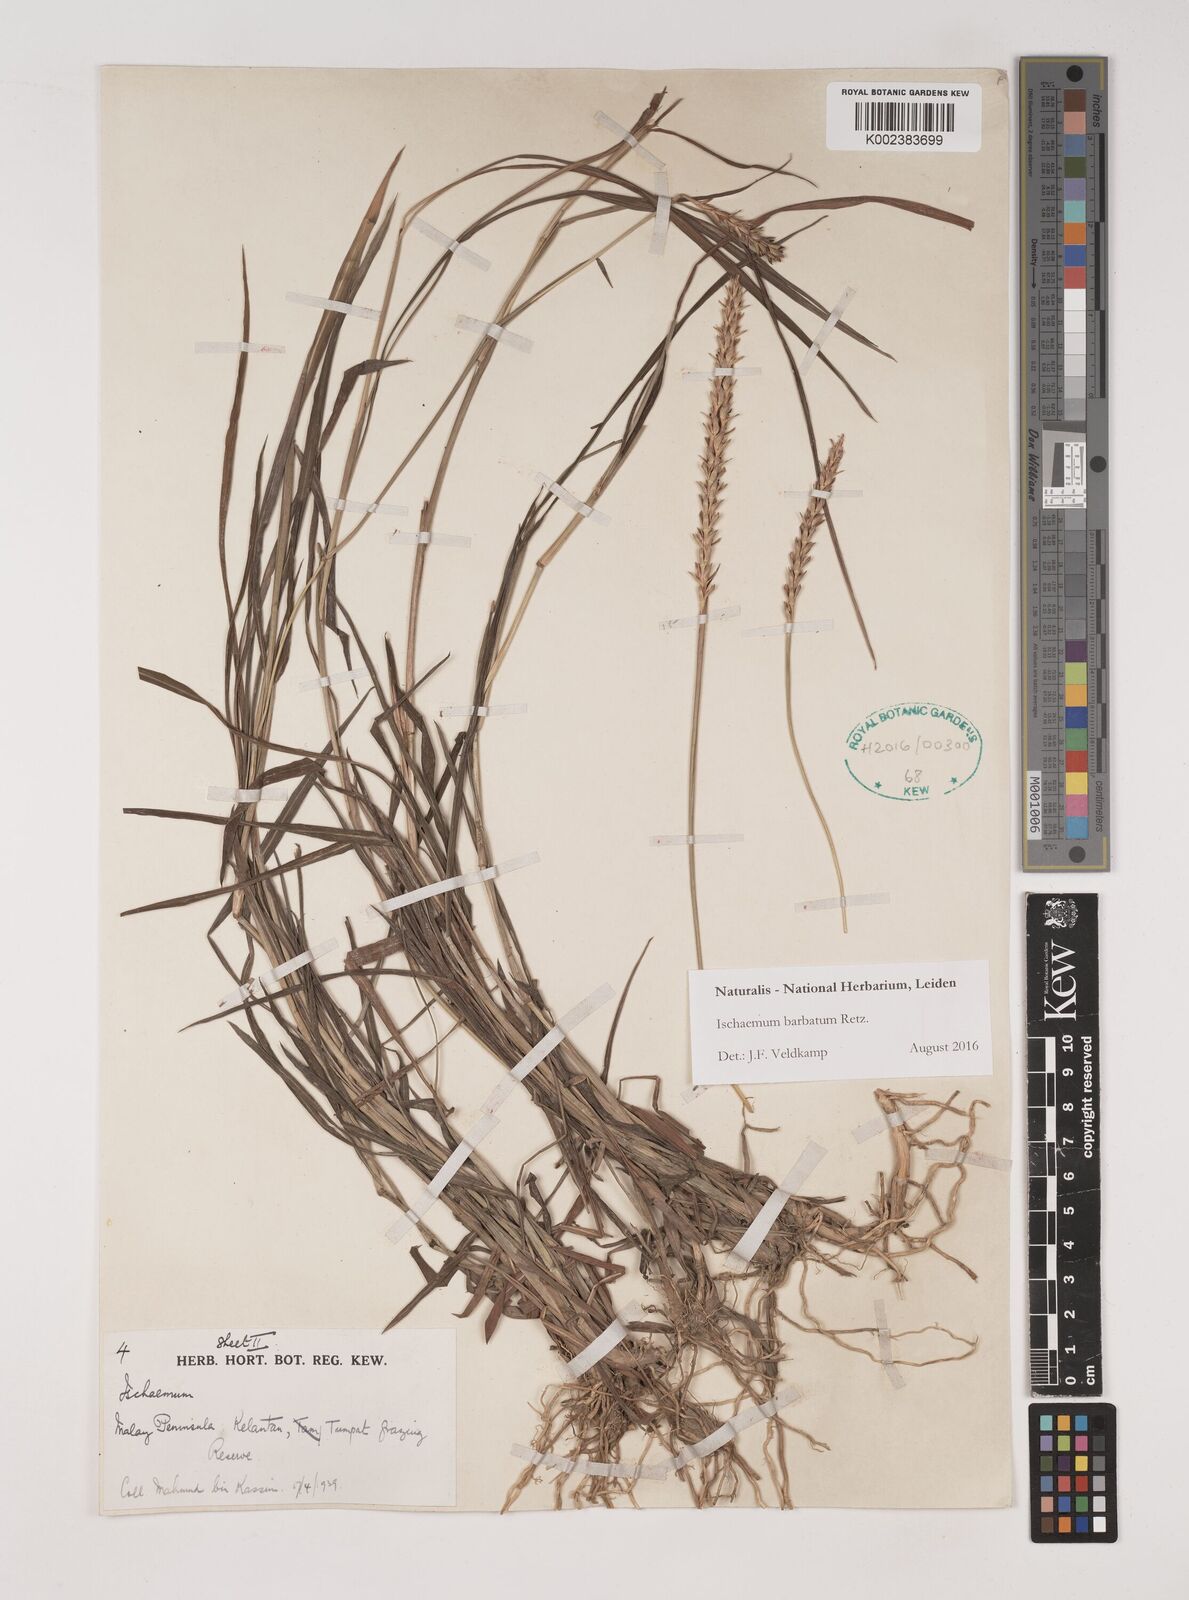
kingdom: Plantae
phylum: Tracheophyta
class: Liliopsida
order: Poales
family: Poaceae
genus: Ischaemum
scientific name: Ischaemum barbatum
